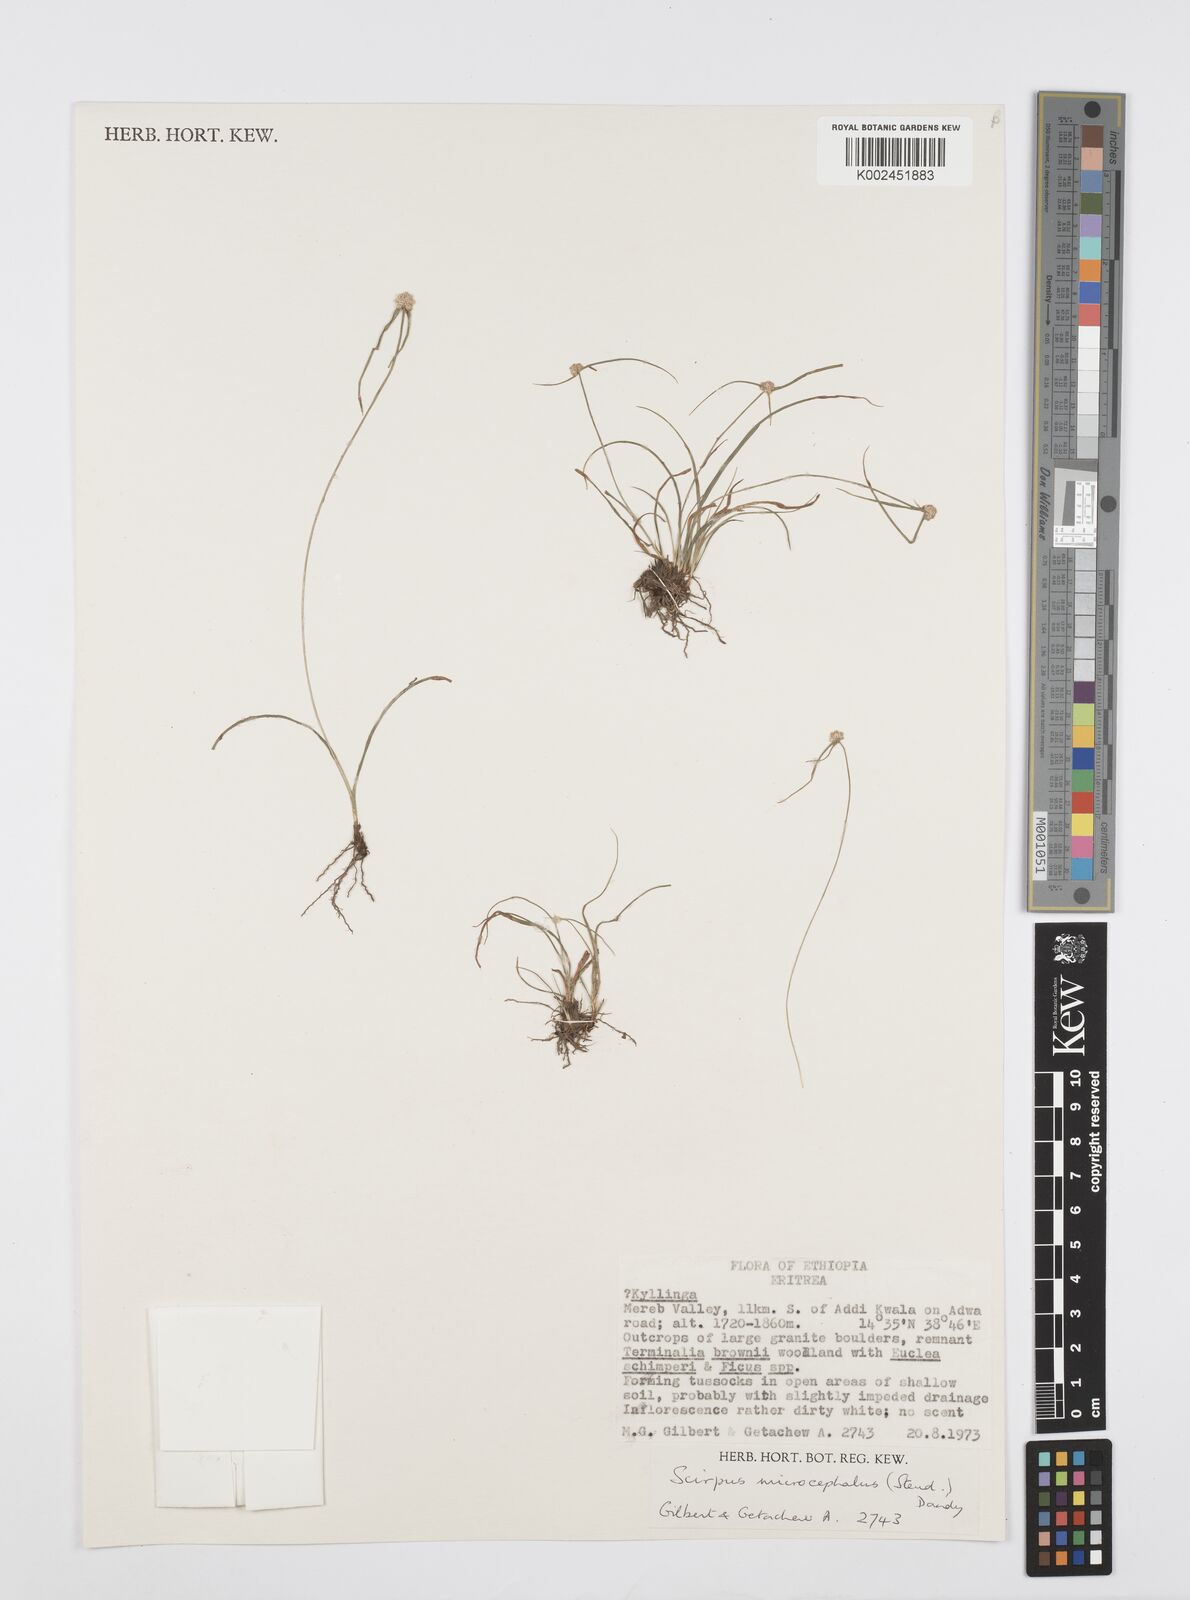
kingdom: Plantae
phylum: Tracheophyta
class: Liliopsida
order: Poales
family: Cyperaceae
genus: Cyperus
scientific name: Cyperus microcephalus
